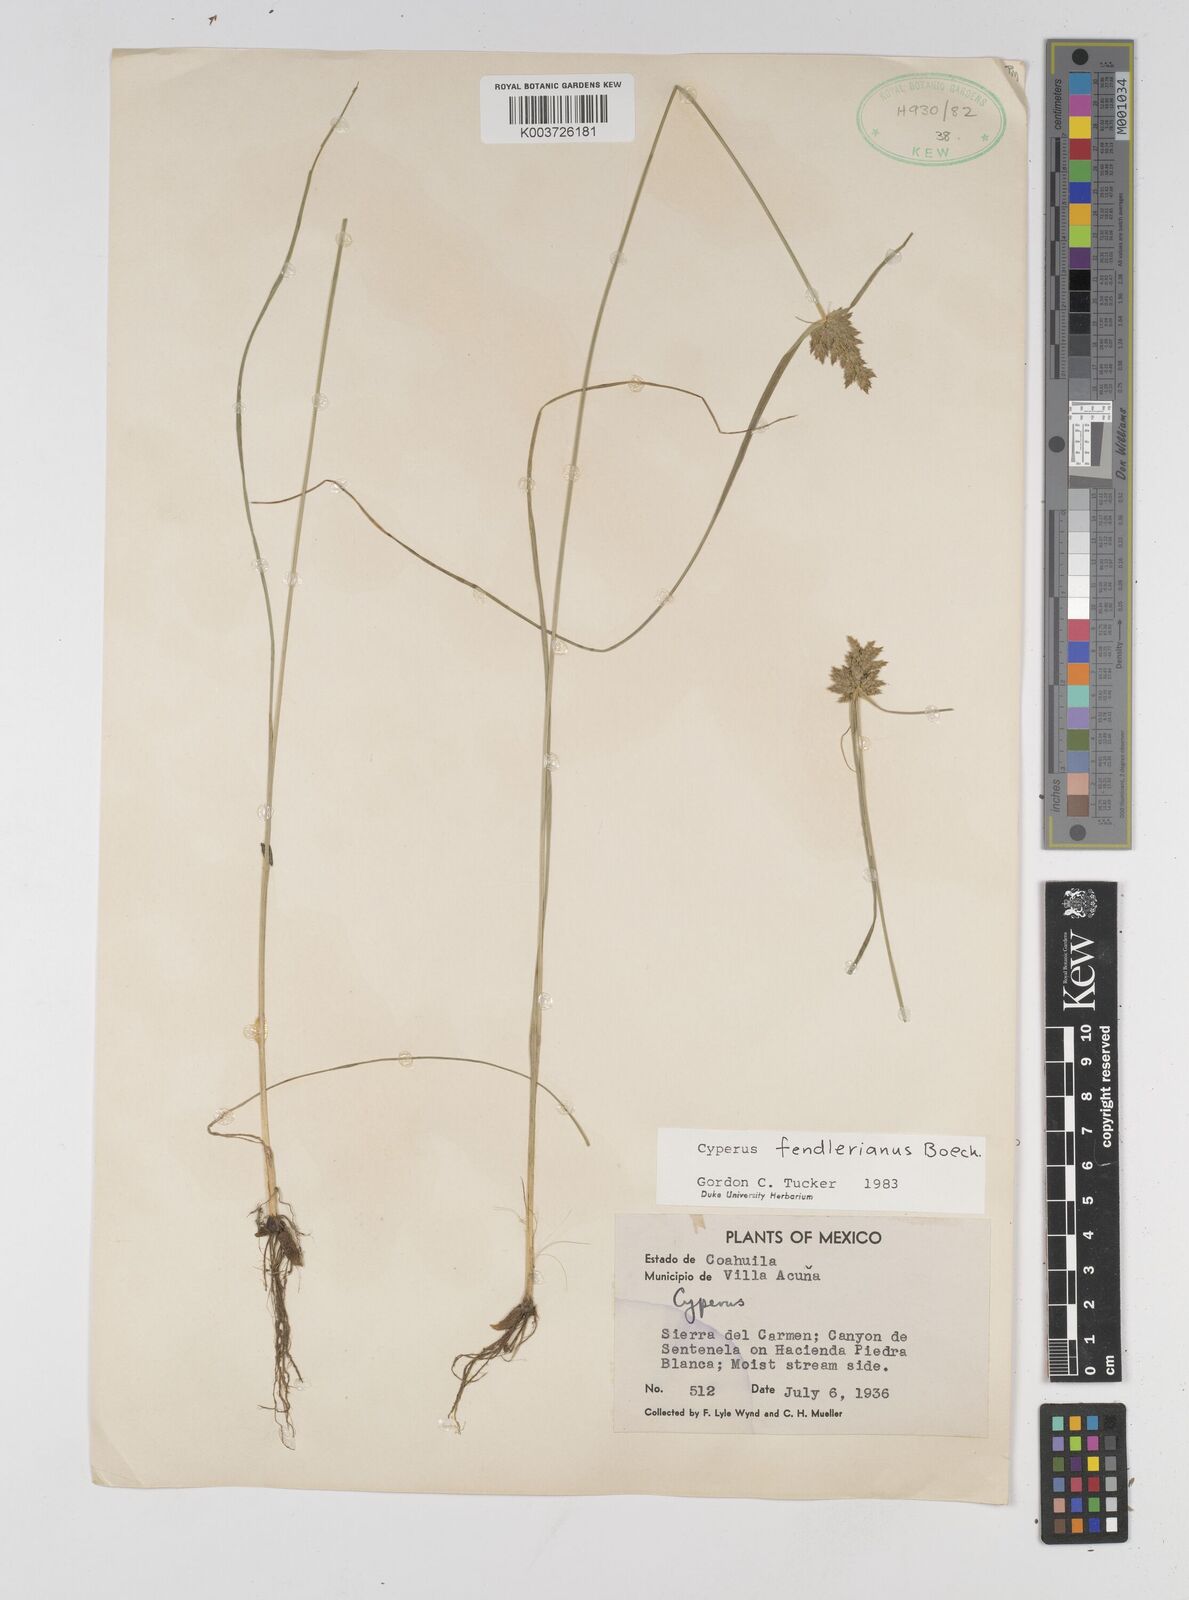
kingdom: Plantae
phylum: Tracheophyta
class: Liliopsida
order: Poales
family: Cyperaceae
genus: Cyperus
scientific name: Cyperus fendlerianus
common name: Fendler flat sedge
